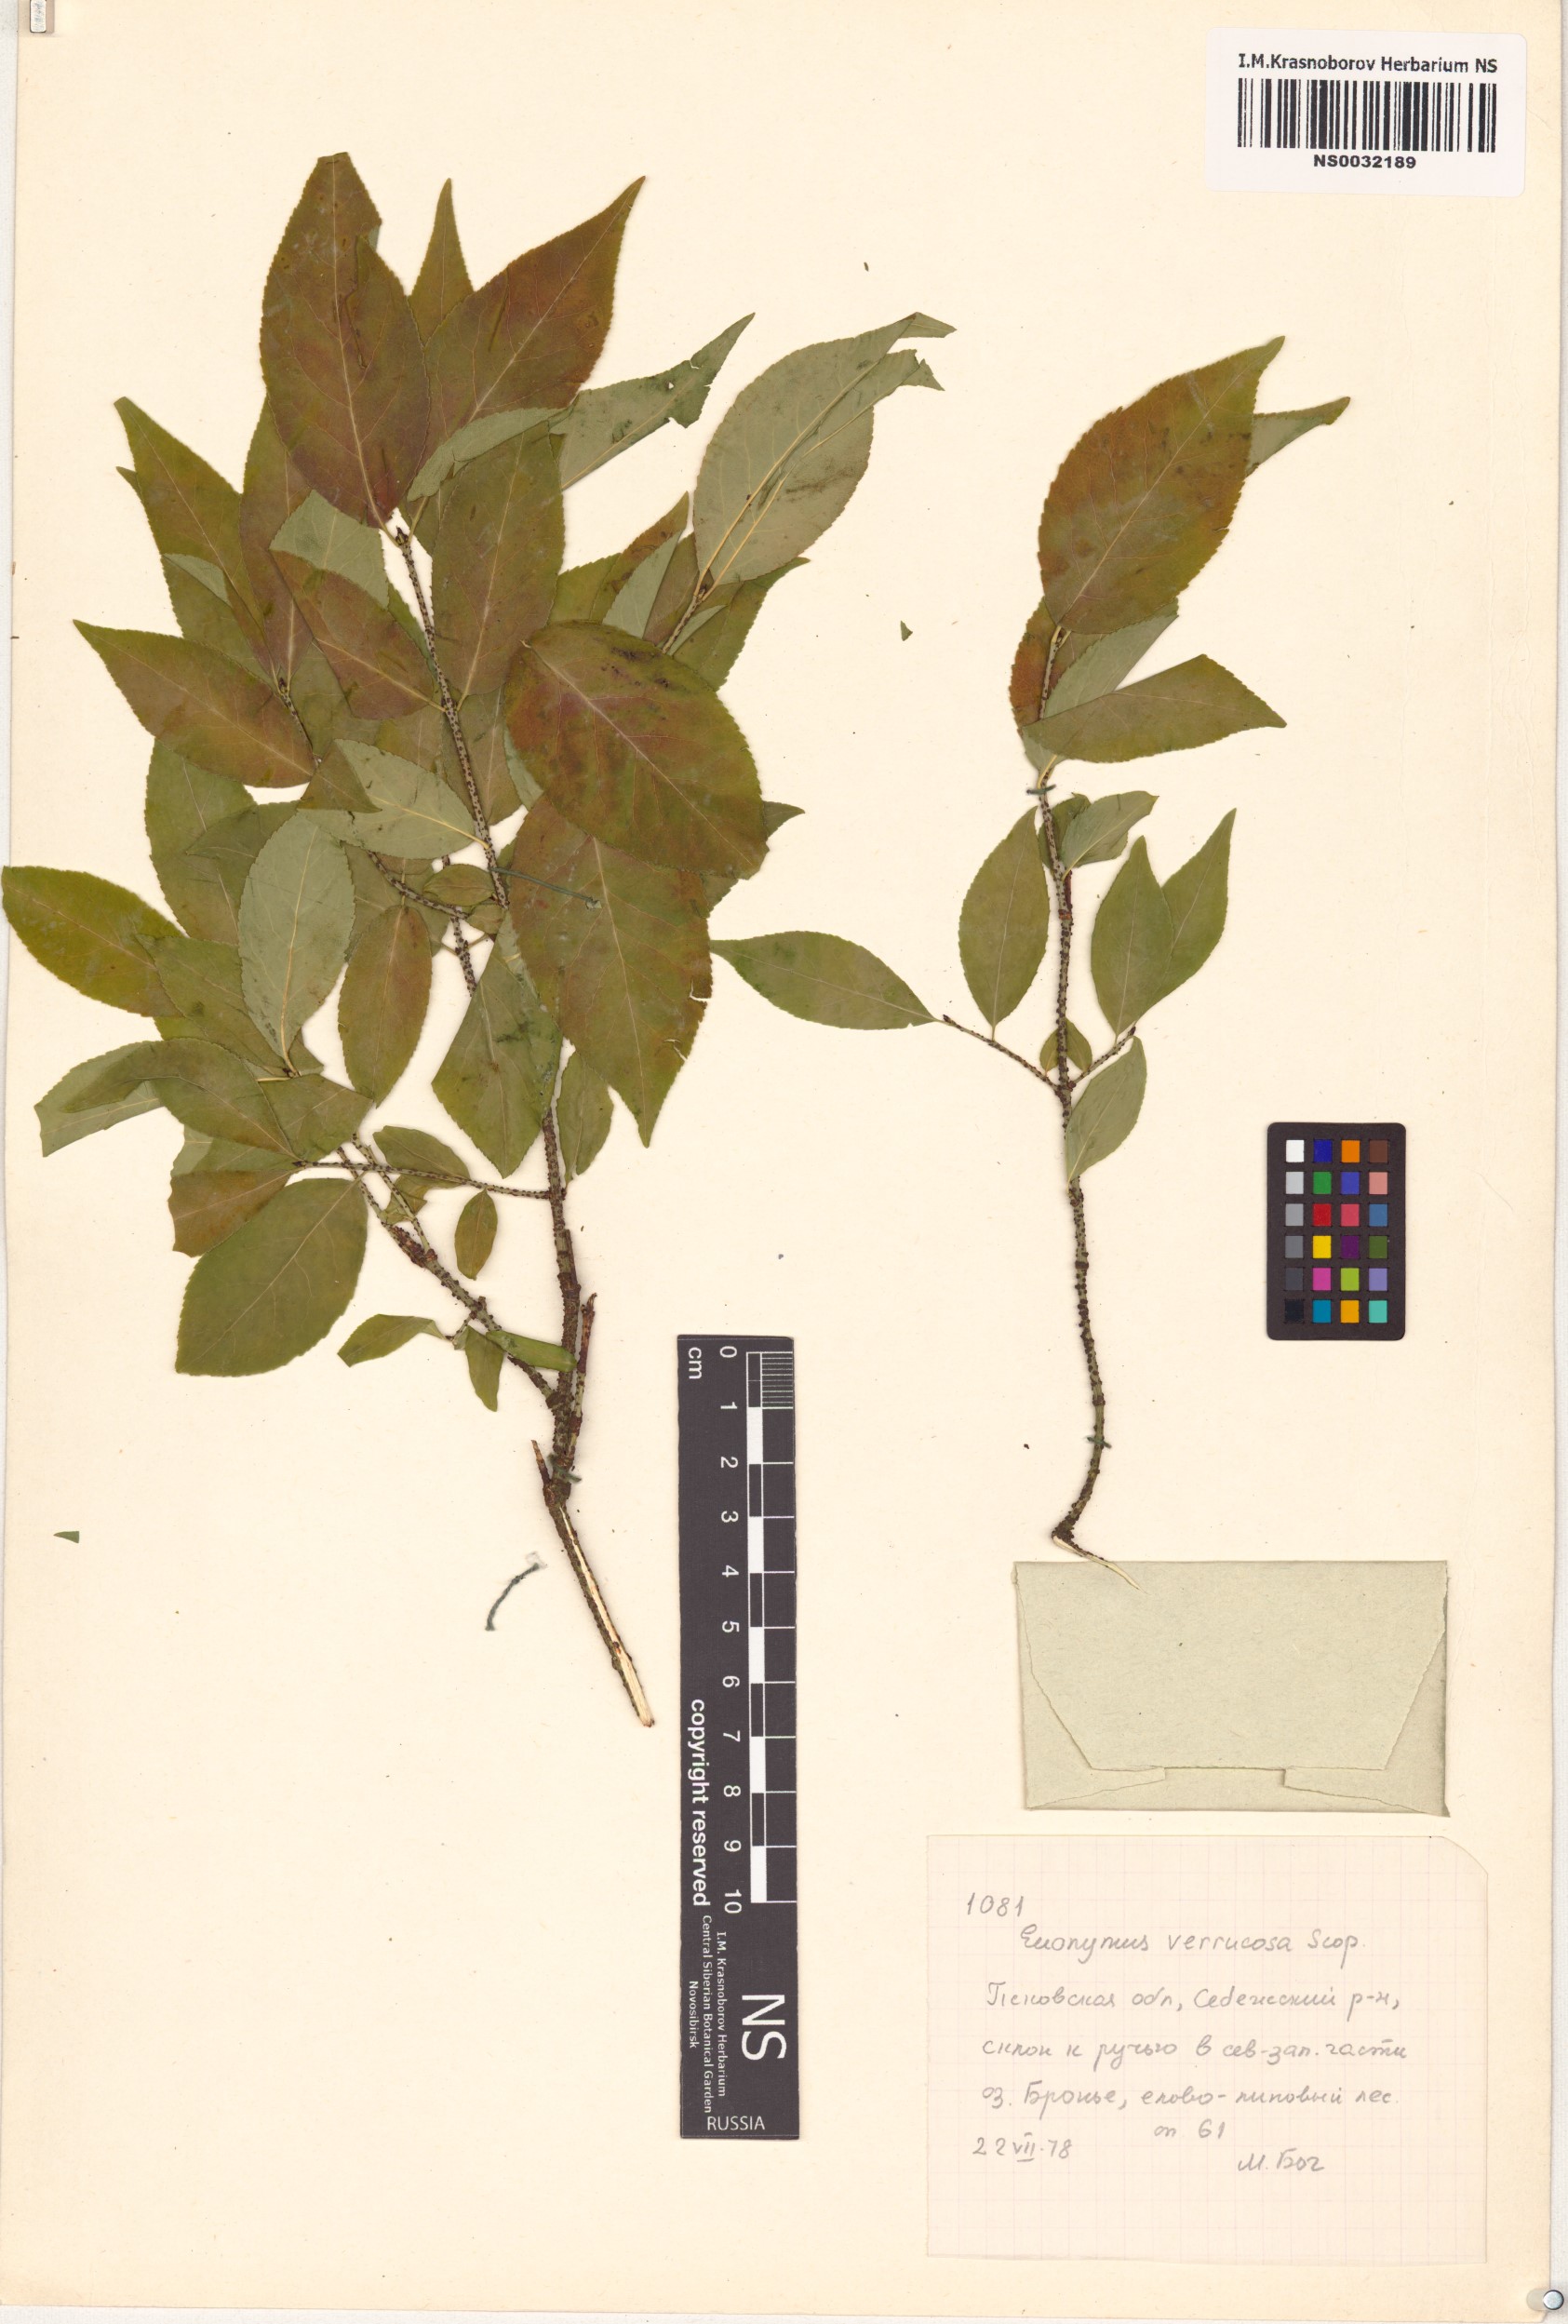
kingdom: Plantae
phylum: Tracheophyta
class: Magnoliopsida
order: Celastrales
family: Celastraceae
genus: Euonymus
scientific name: Euonymus verrucosus
